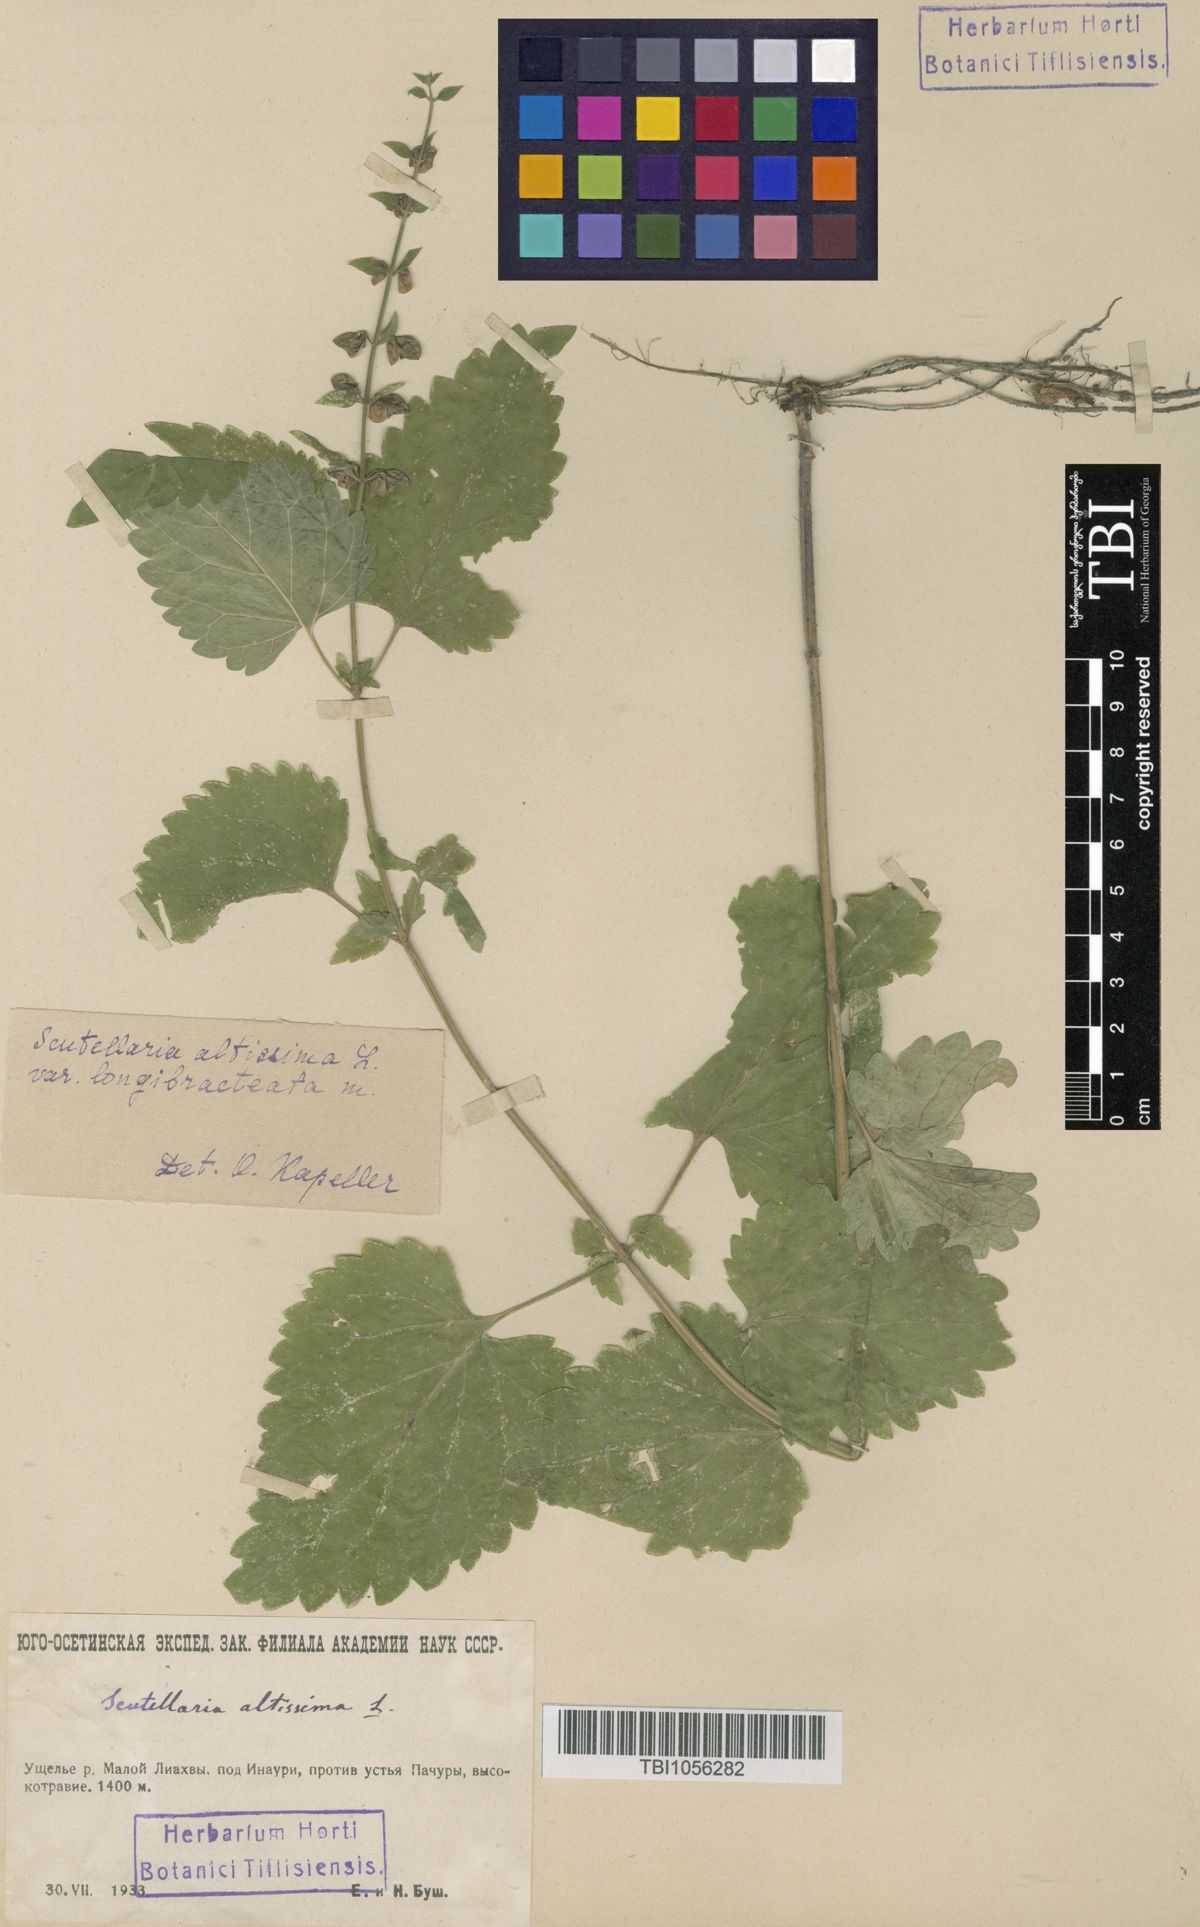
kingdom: Plantae
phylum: Tracheophyta
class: Magnoliopsida
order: Lamiales
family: Lamiaceae
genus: Scutellaria
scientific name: Scutellaria altissima
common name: Somerset skullcap
